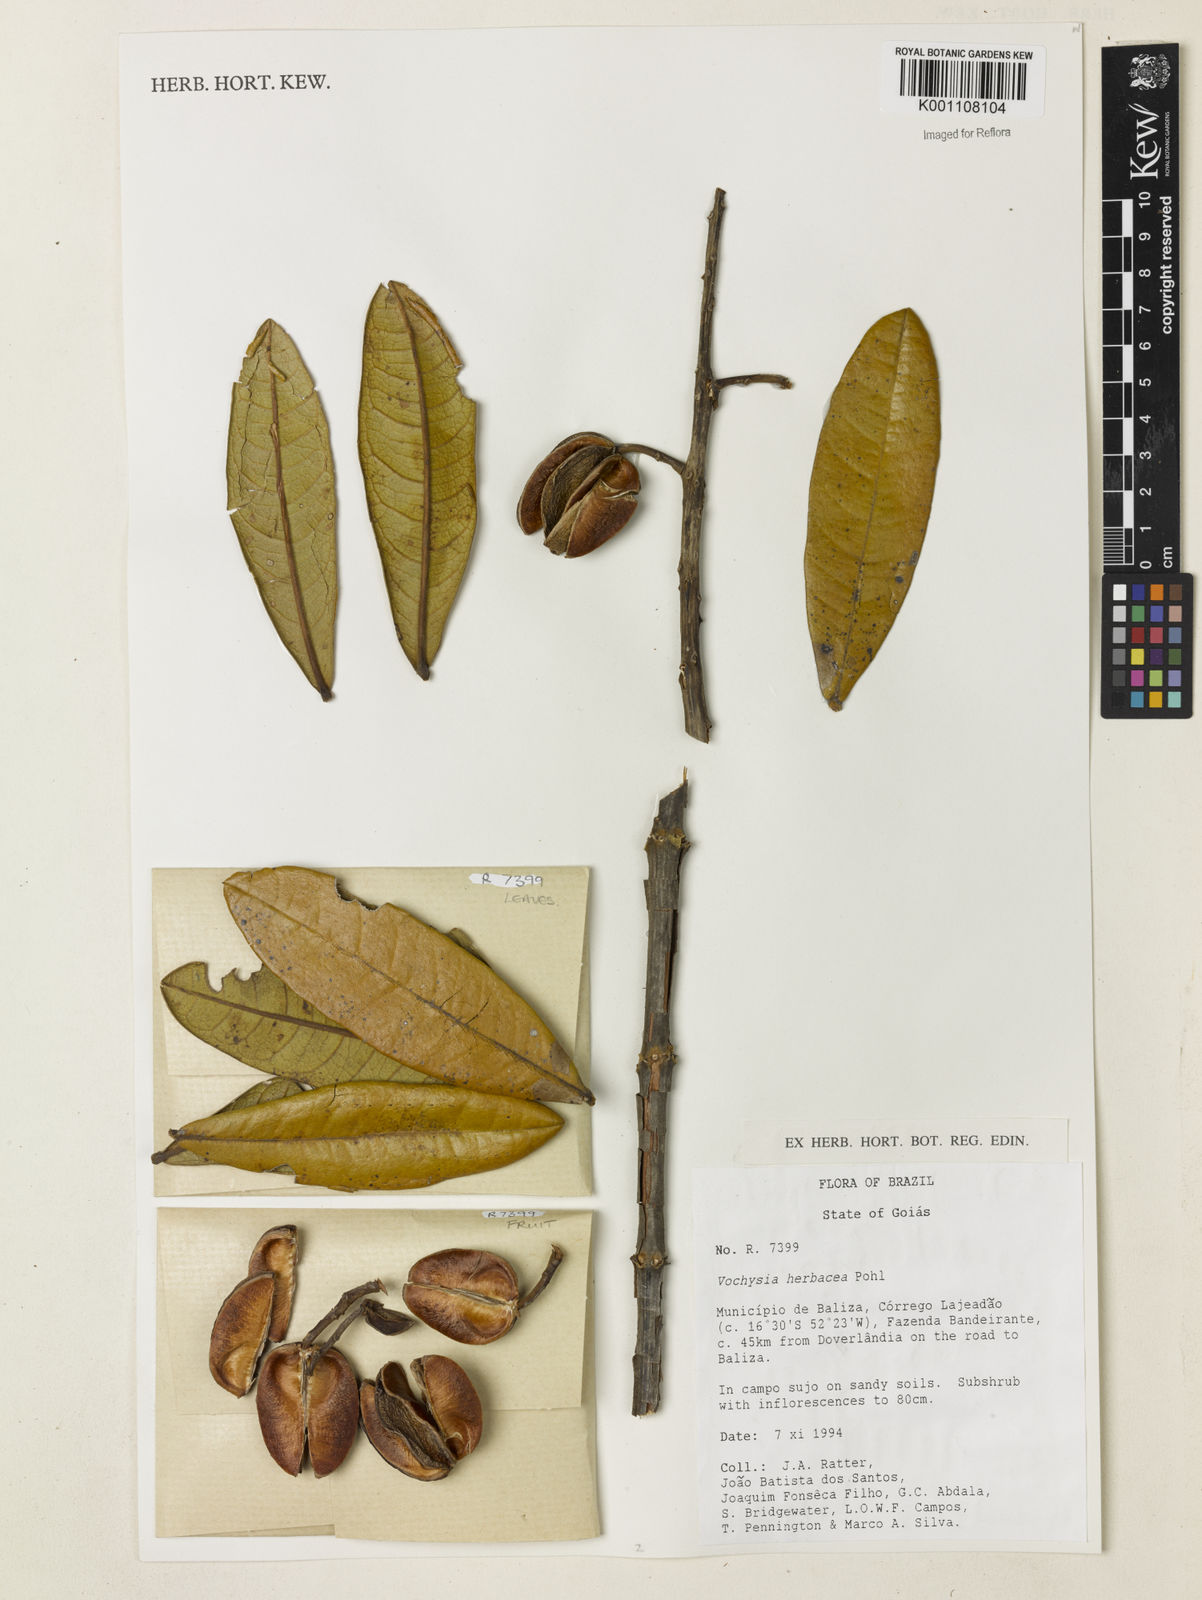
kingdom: Plantae
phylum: Tracheophyta
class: Magnoliopsida
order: Myrtales
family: Vochysiaceae
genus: Vochysia
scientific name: Vochysia herbacea
